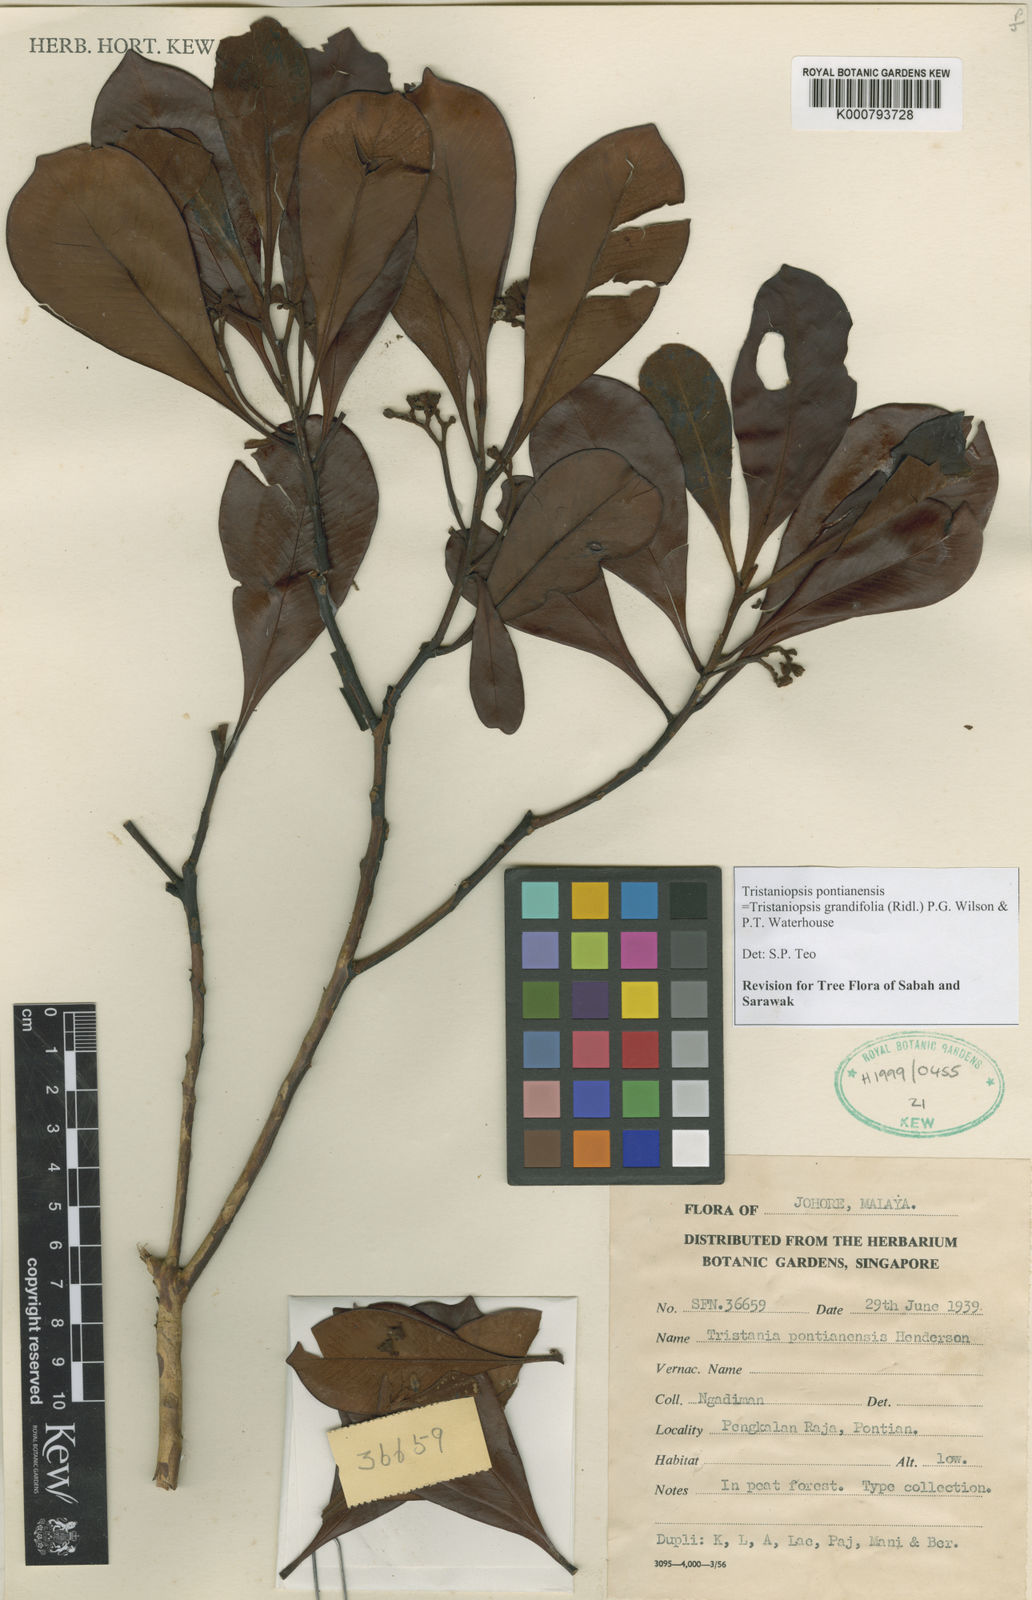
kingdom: Plantae
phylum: Tracheophyta
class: Magnoliopsida
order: Myrtales
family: Myrtaceae
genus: Tristaniopsis
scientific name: Tristaniopsis pontianensis
